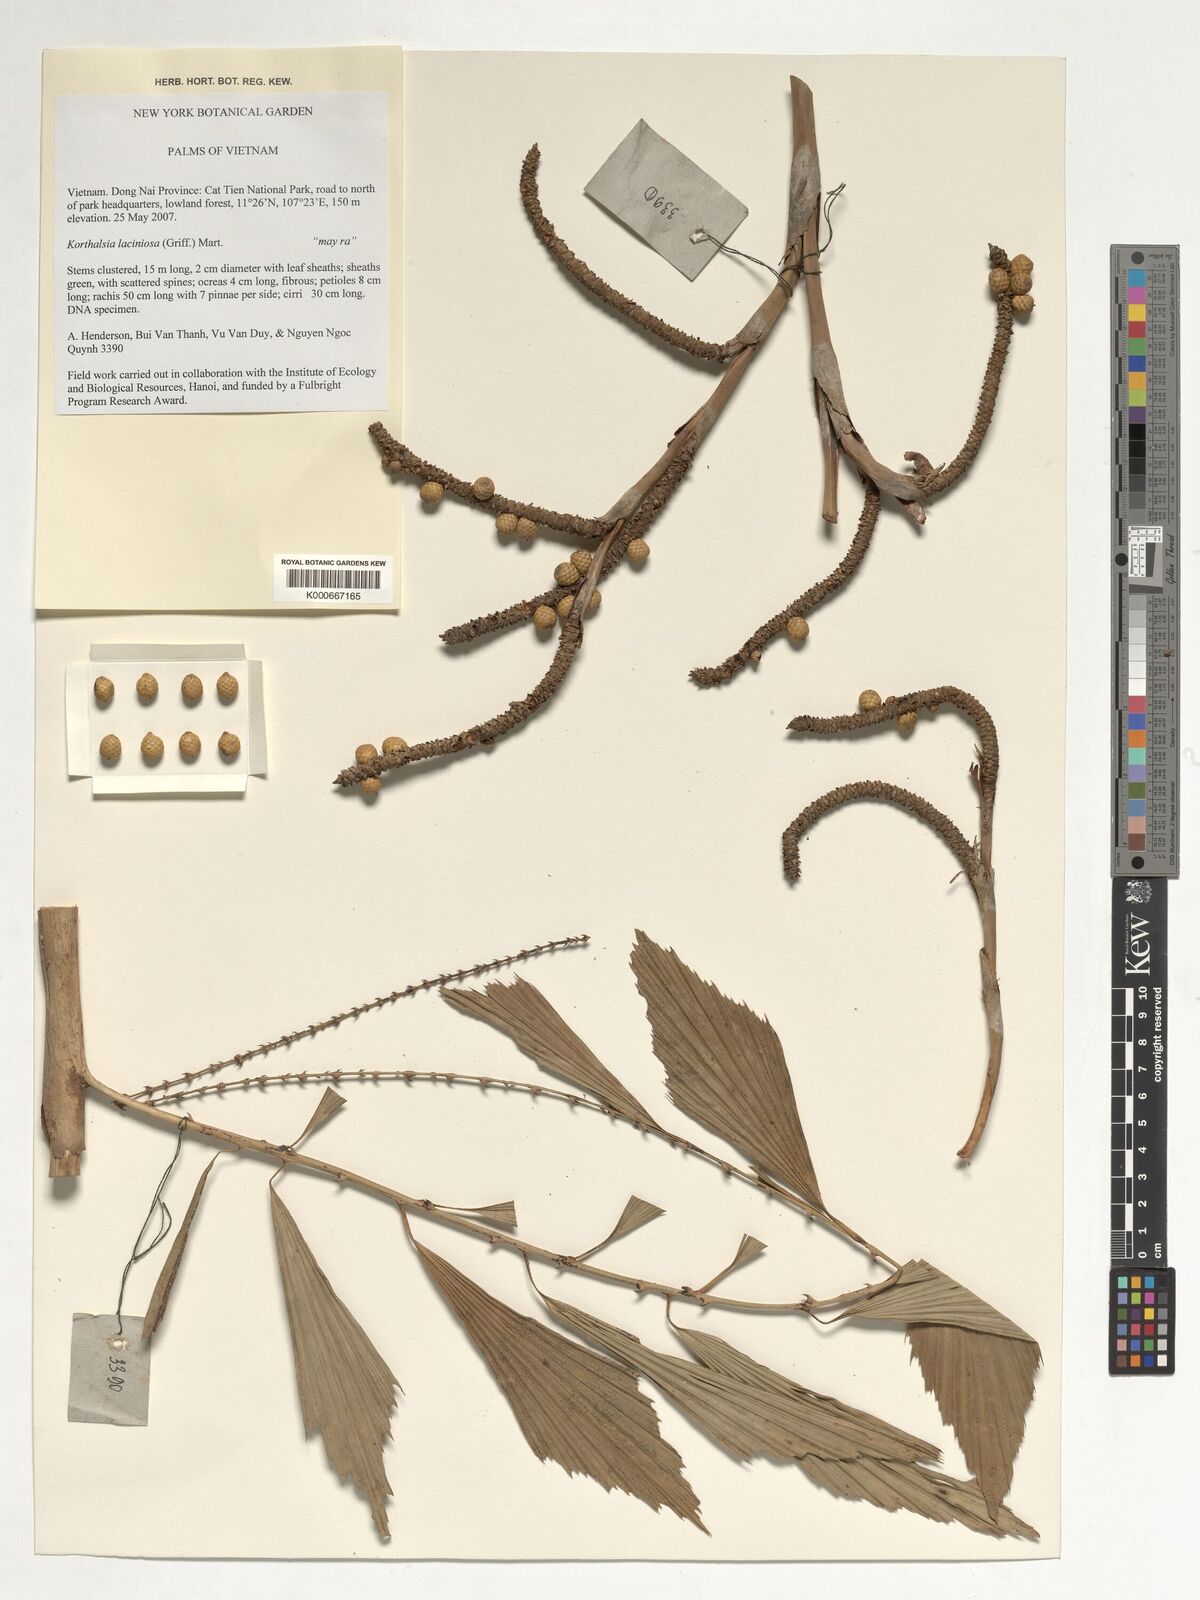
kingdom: Plantae
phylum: Tracheophyta
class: Liliopsida
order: Arecales
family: Arecaceae
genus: Korthalsia
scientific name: Korthalsia laciniosa
